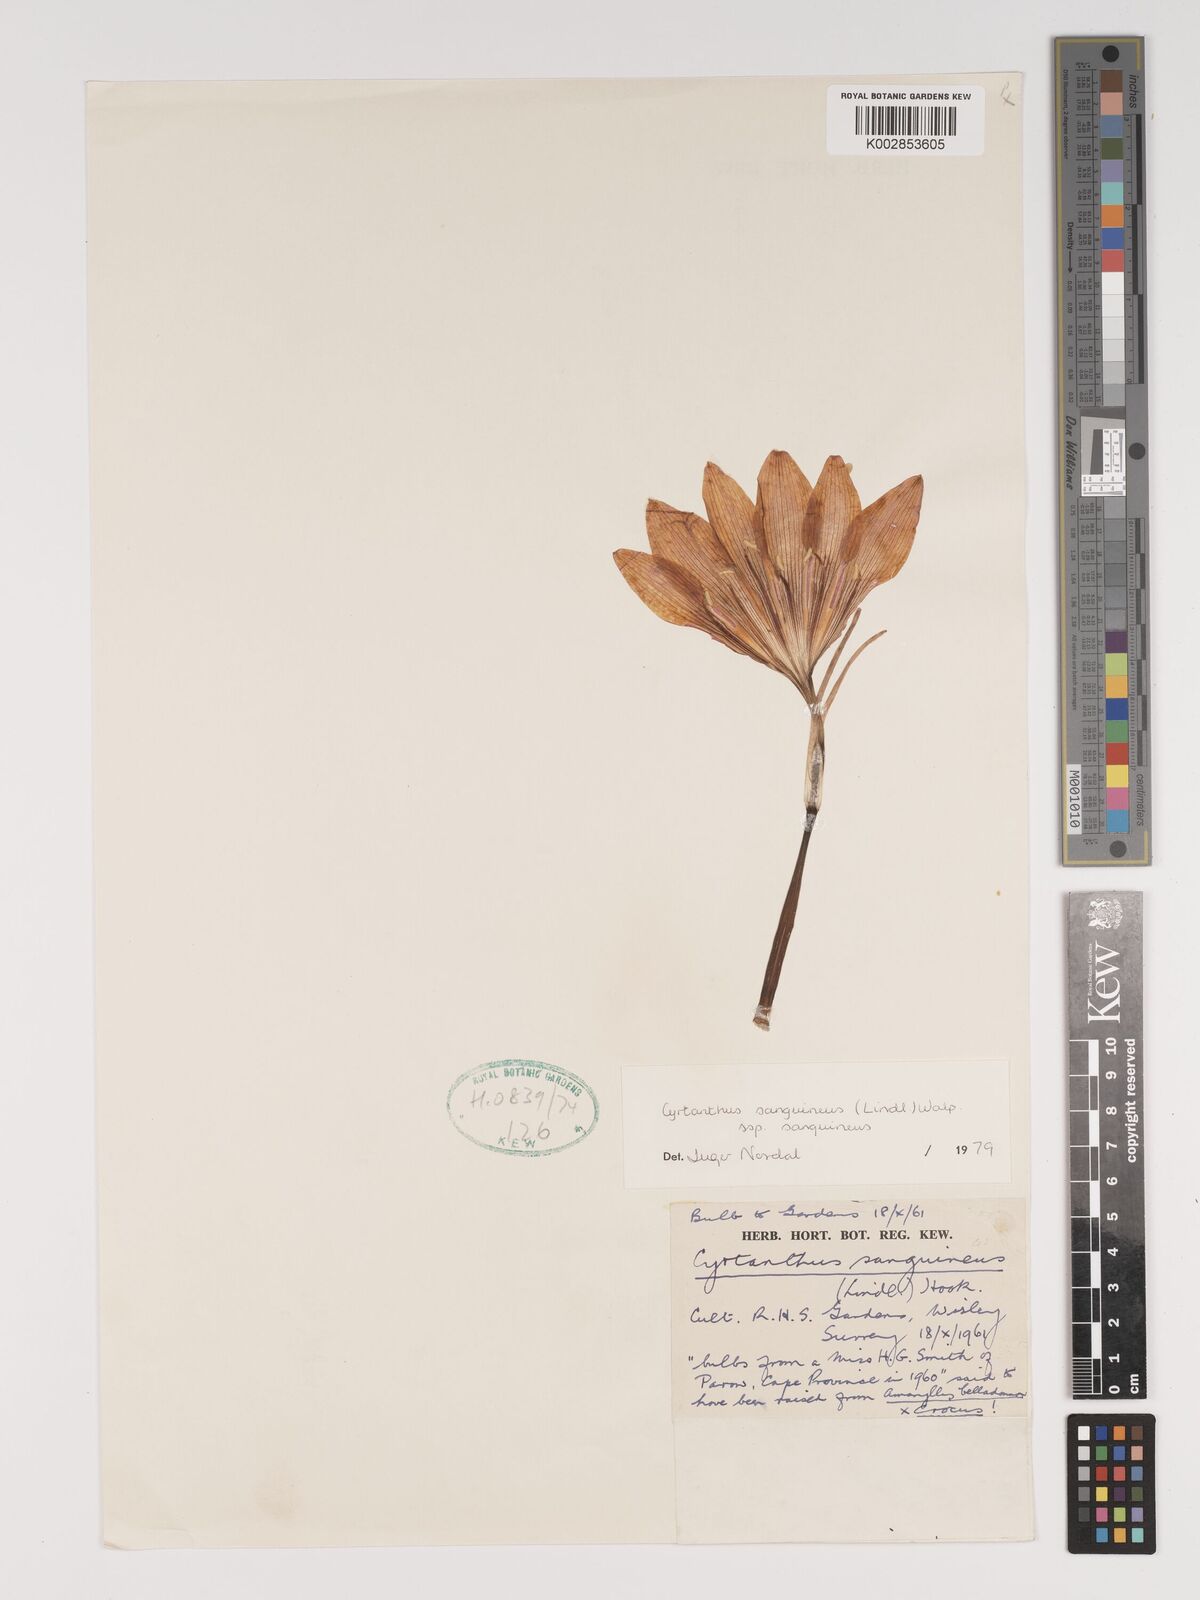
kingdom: Plantae
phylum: Tracheophyta
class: Liliopsida
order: Asparagales
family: Amaryllidaceae
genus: Cyrtanthus
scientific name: Cyrtanthus sanguineus
